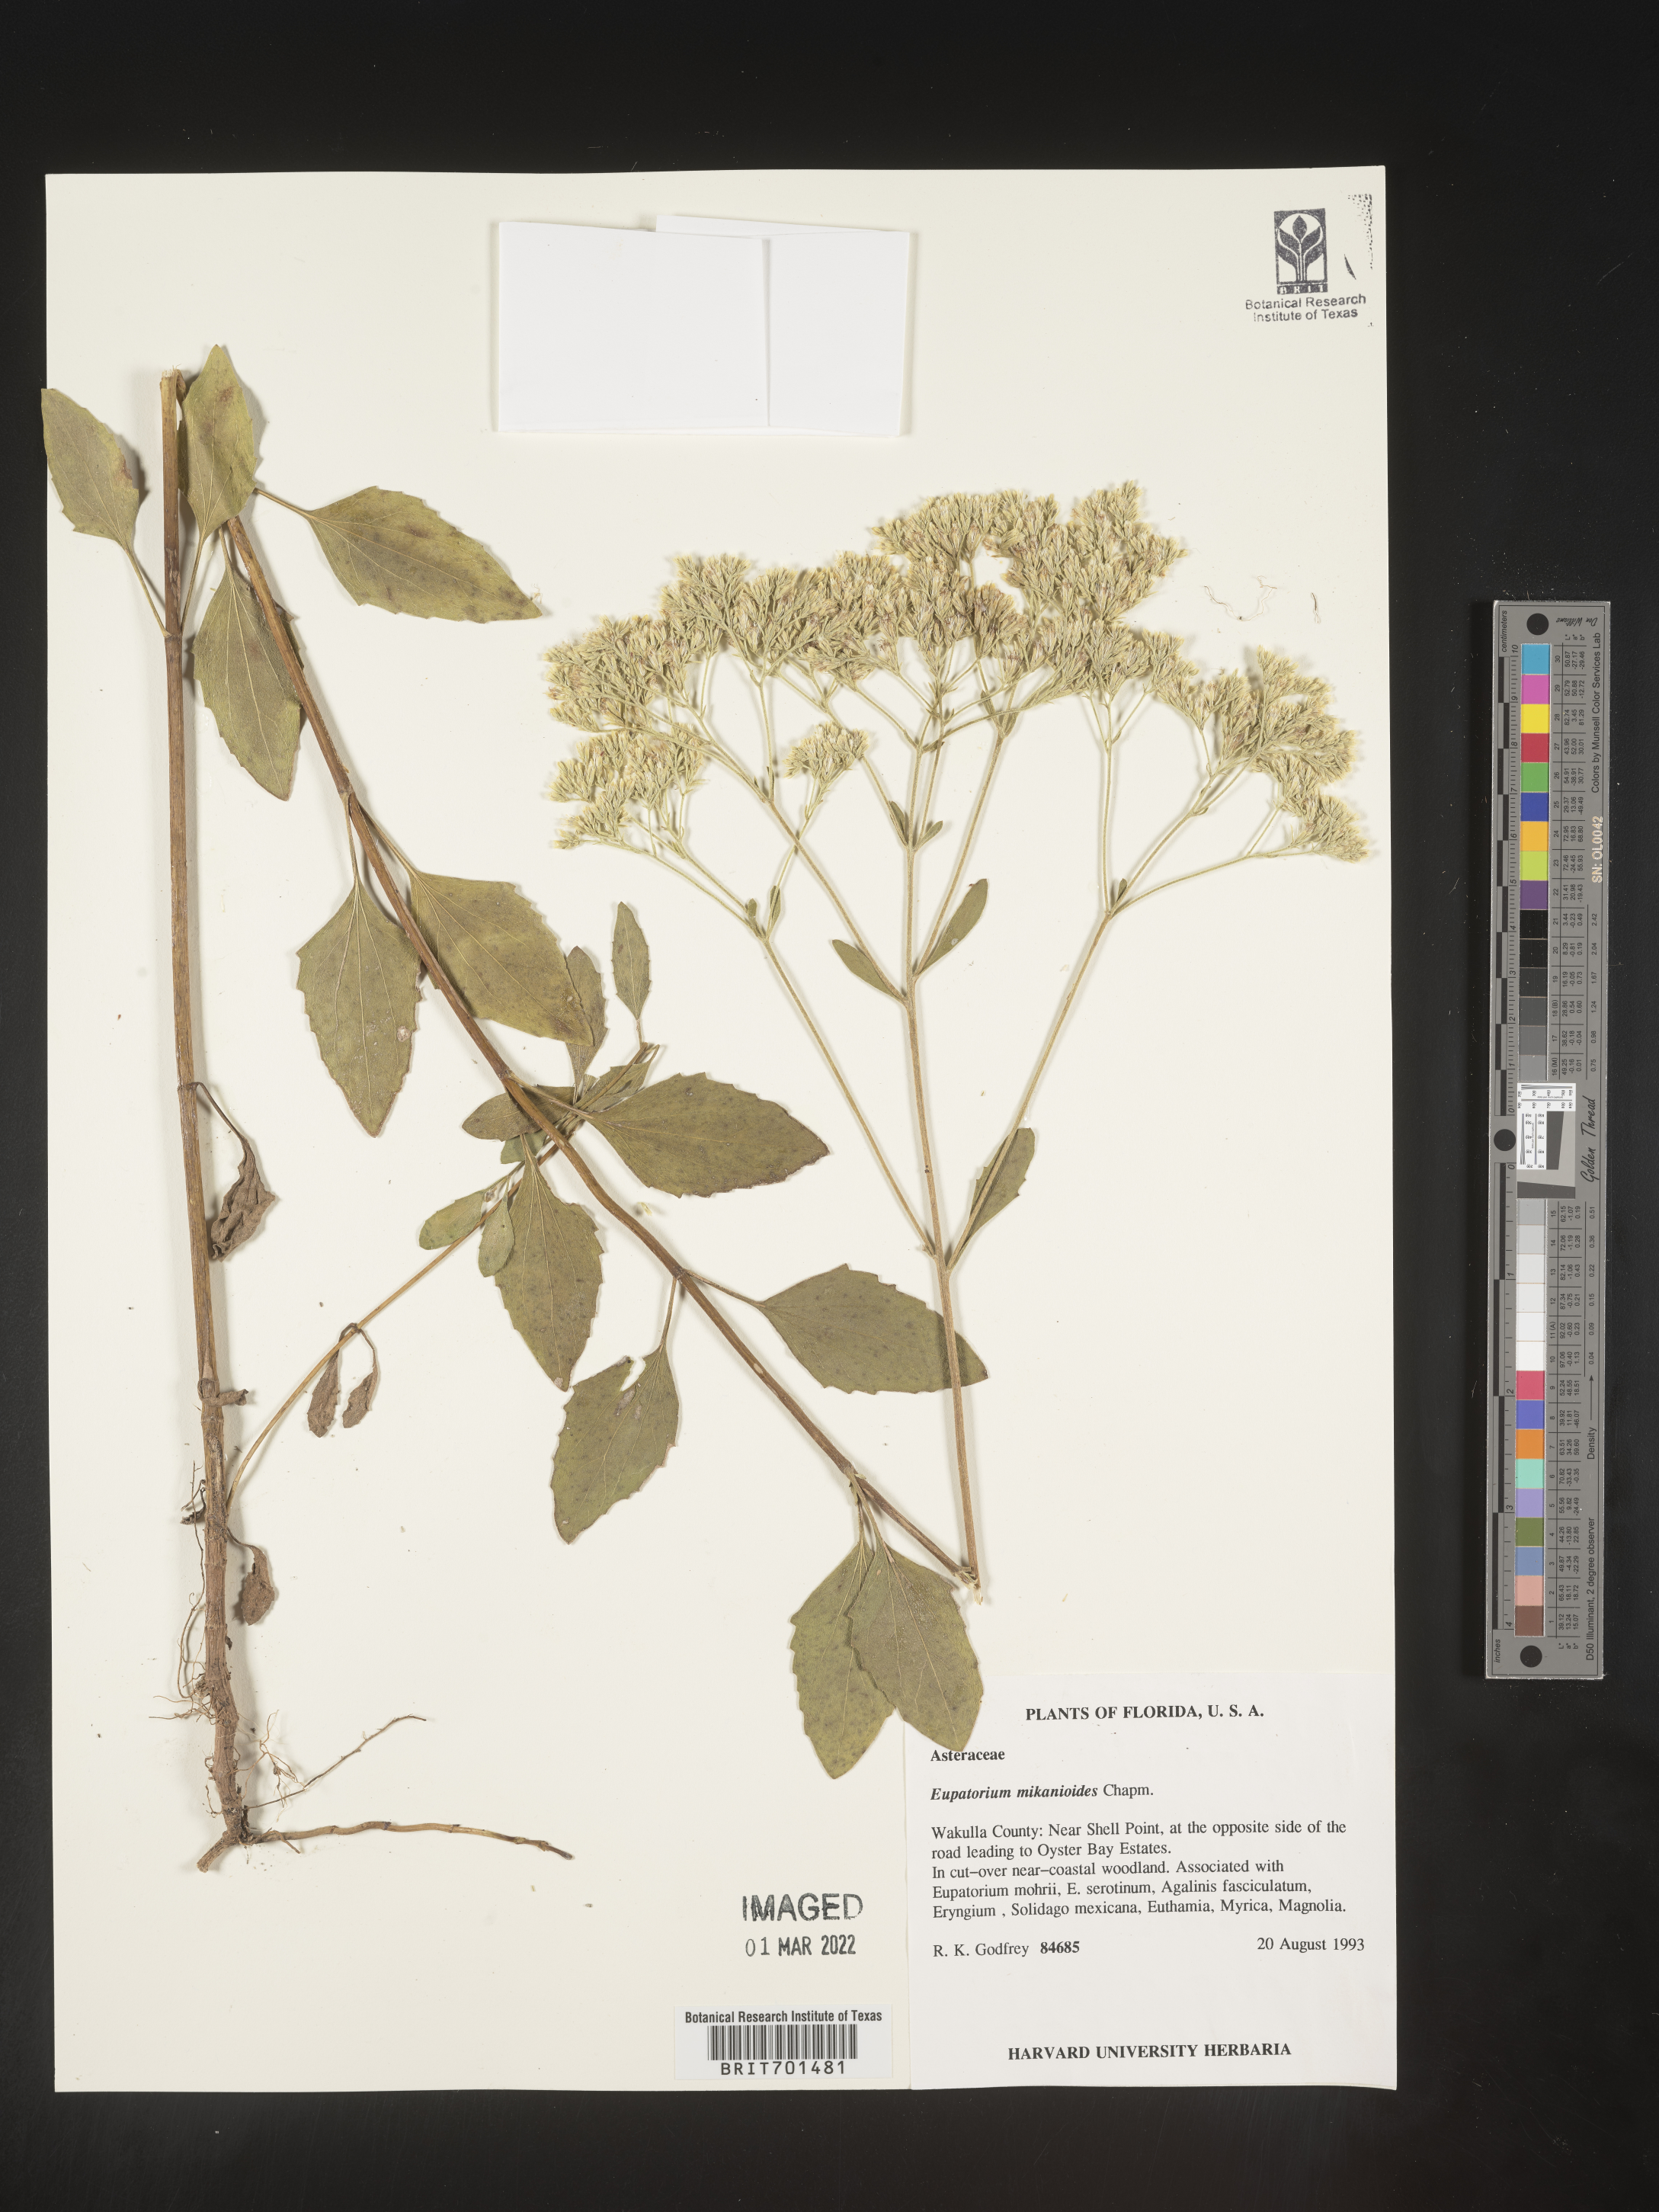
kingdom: Plantae
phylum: Tracheophyta
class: Magnoliopsida
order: Asterales
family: Asteraceae
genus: Eupatorium
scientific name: Eupatorium
